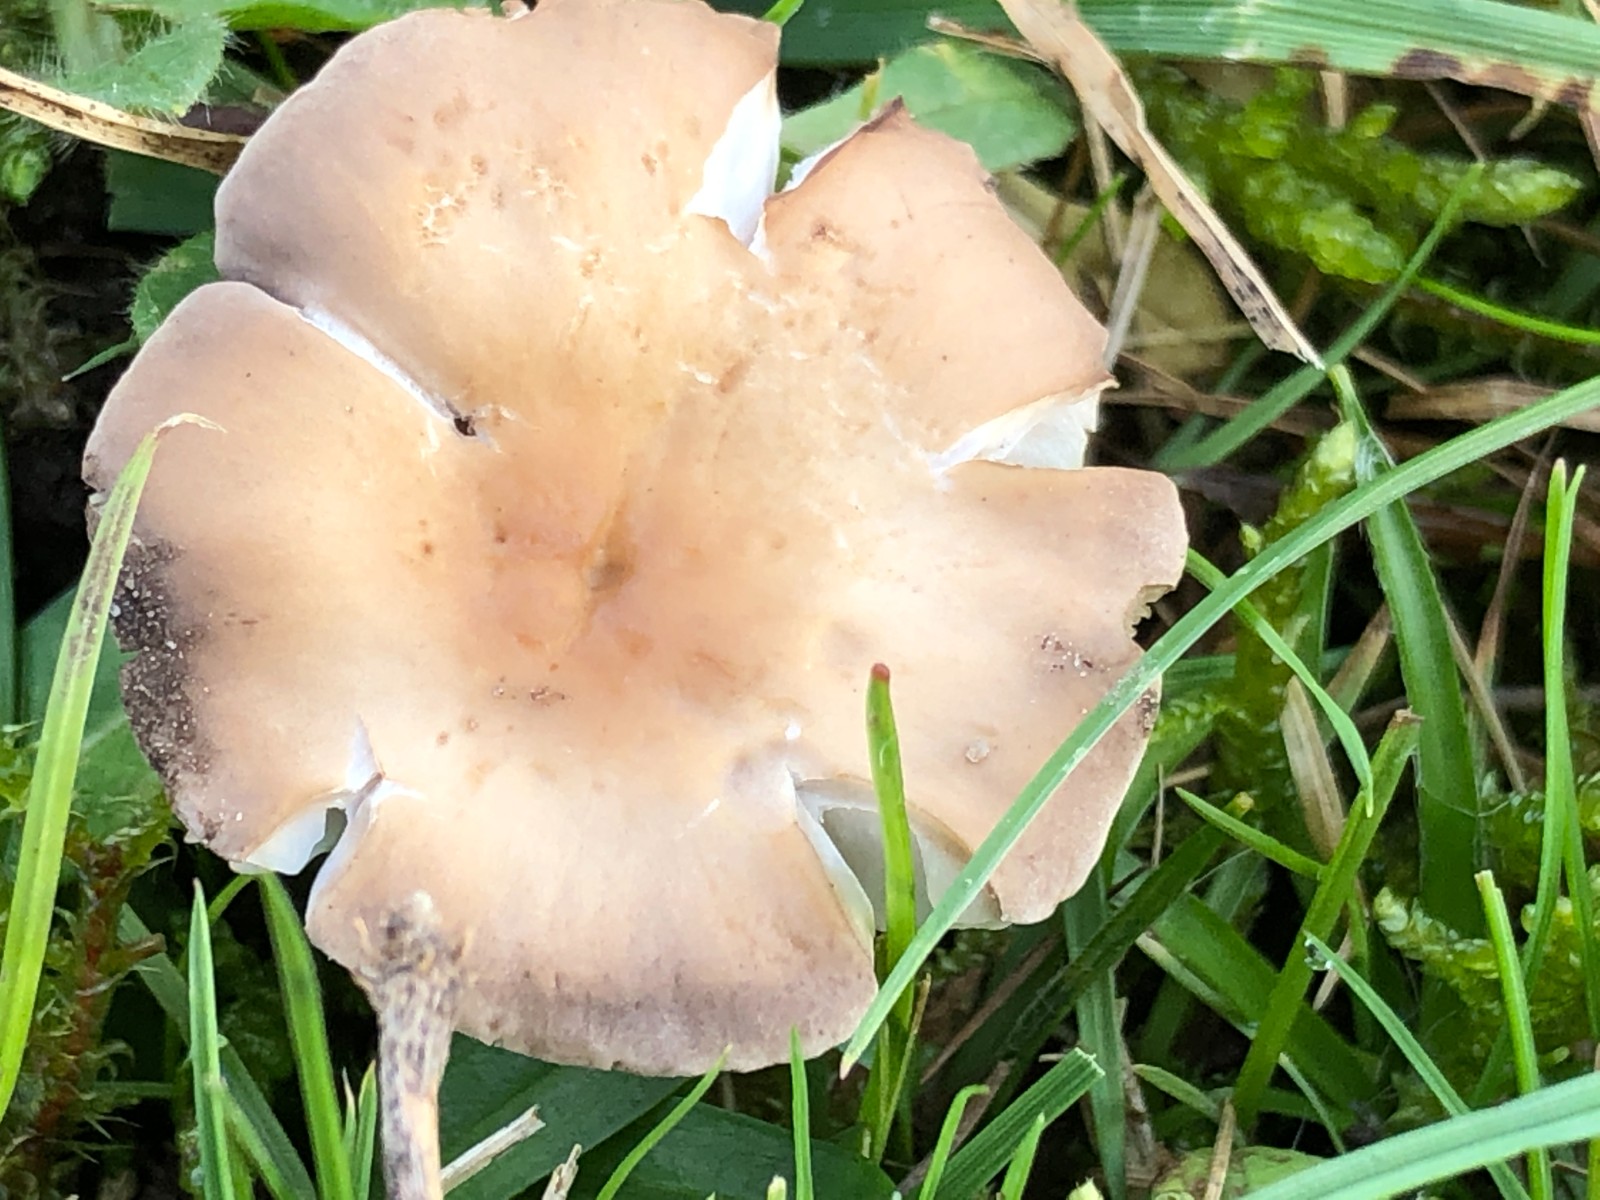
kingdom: Fungi
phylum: Basidiomycota
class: Agaricomycetes
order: Agaricales
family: Tricholomataceae
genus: Dermoloma
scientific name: Dermoloma cuneifolium
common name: eng-nonnehat
